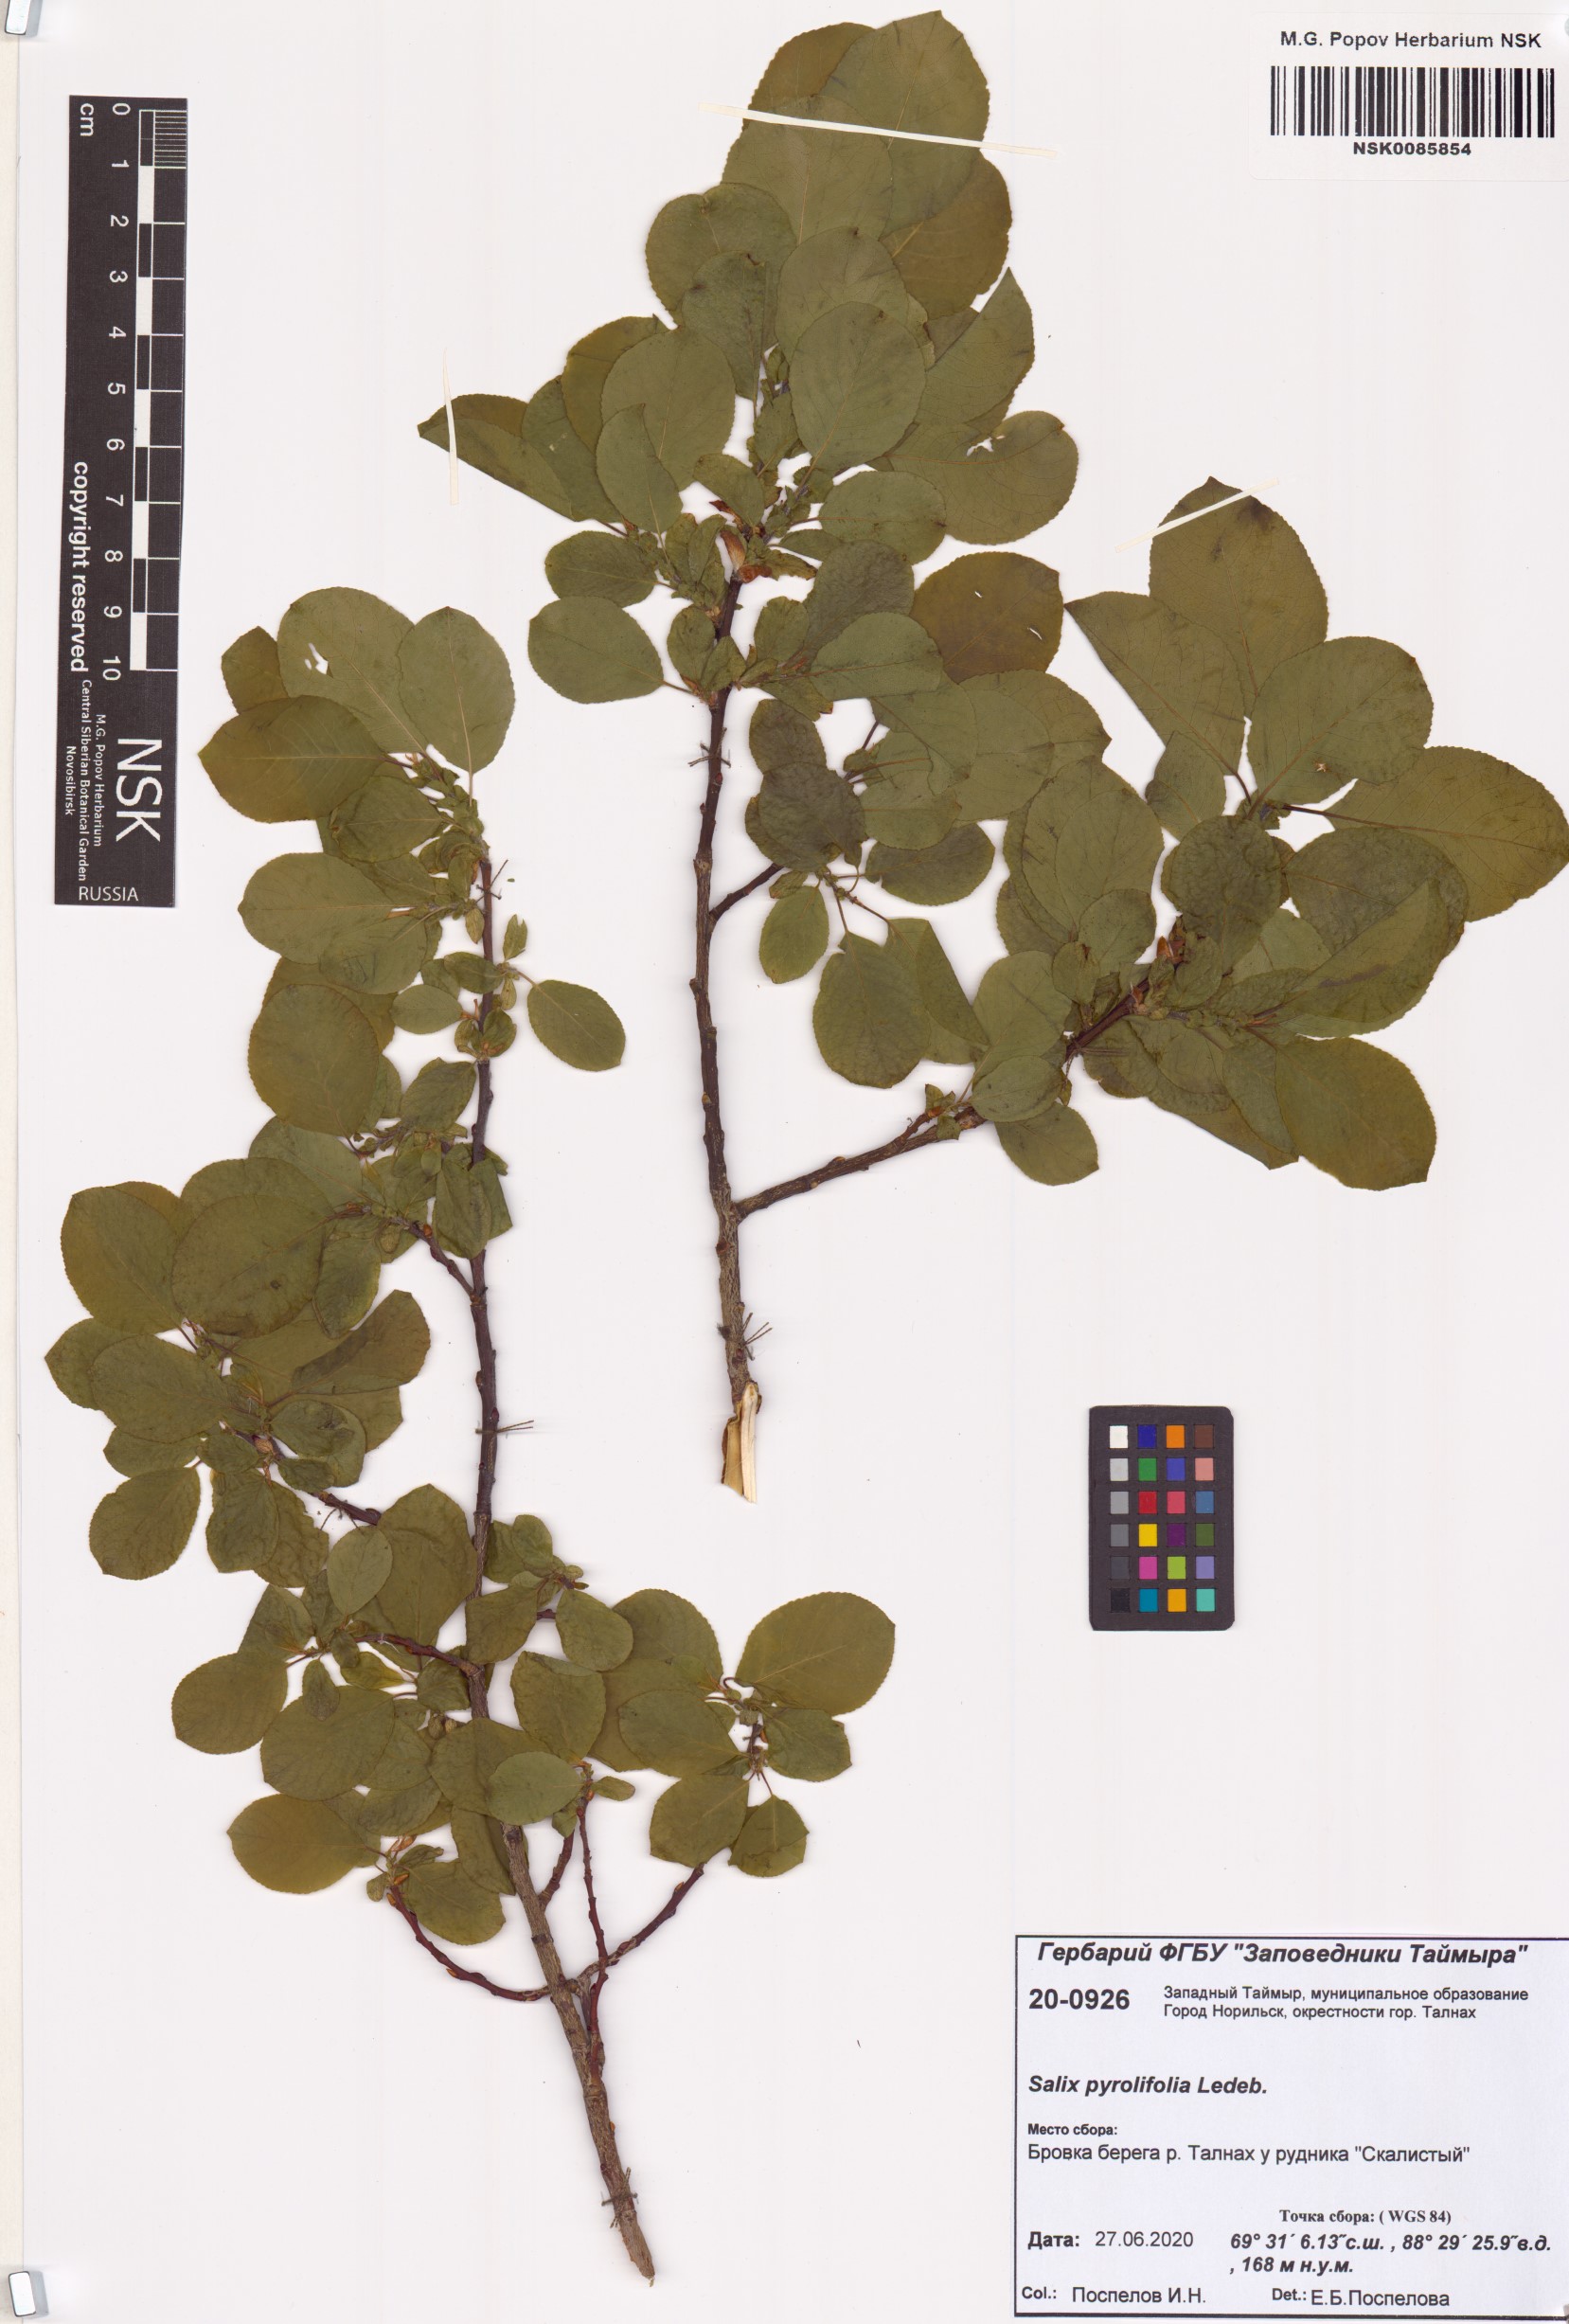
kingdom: Plantae
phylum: Tracheophyta
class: Magnoliopsida
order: Malpighiales
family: Salicaceae
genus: Salix
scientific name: Salix pyrolifolia
